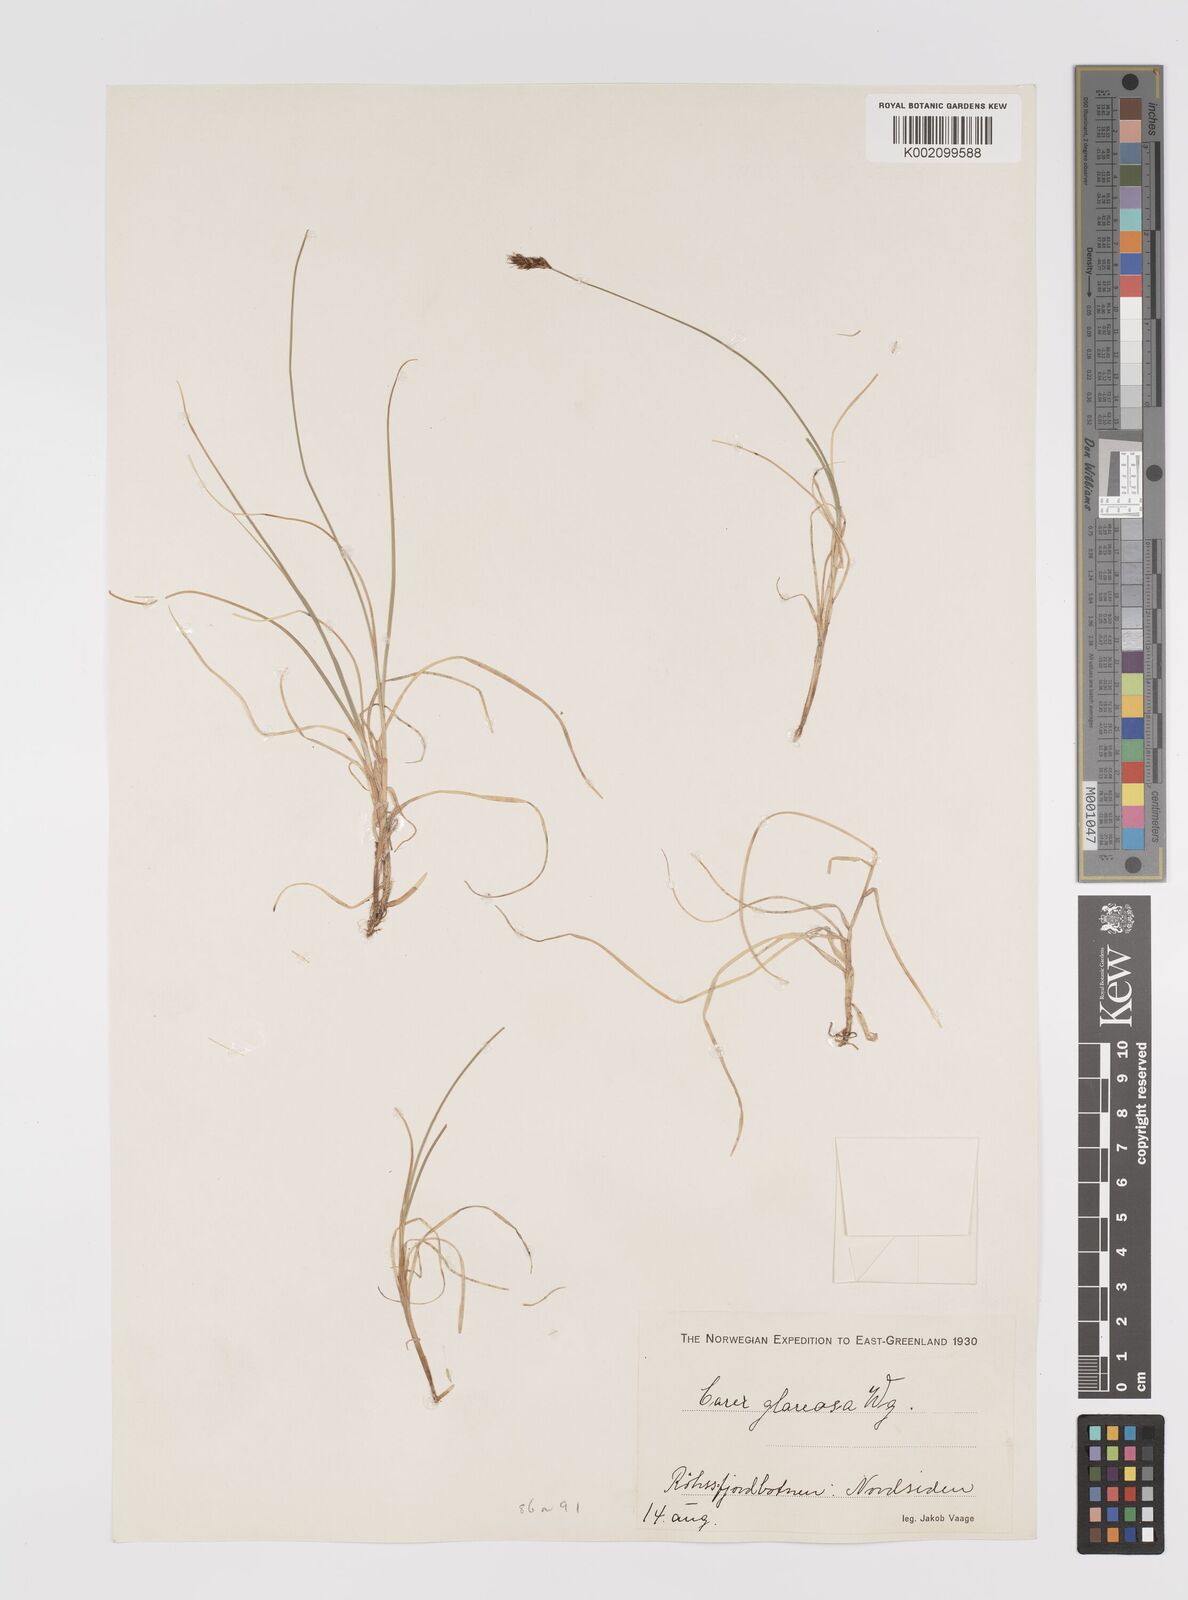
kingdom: Plantae
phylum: Tracheophyta
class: Liliopsida
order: Poales
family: Cyperaceae
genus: Carex
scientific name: Carex glareosa
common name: Clustered sedge
